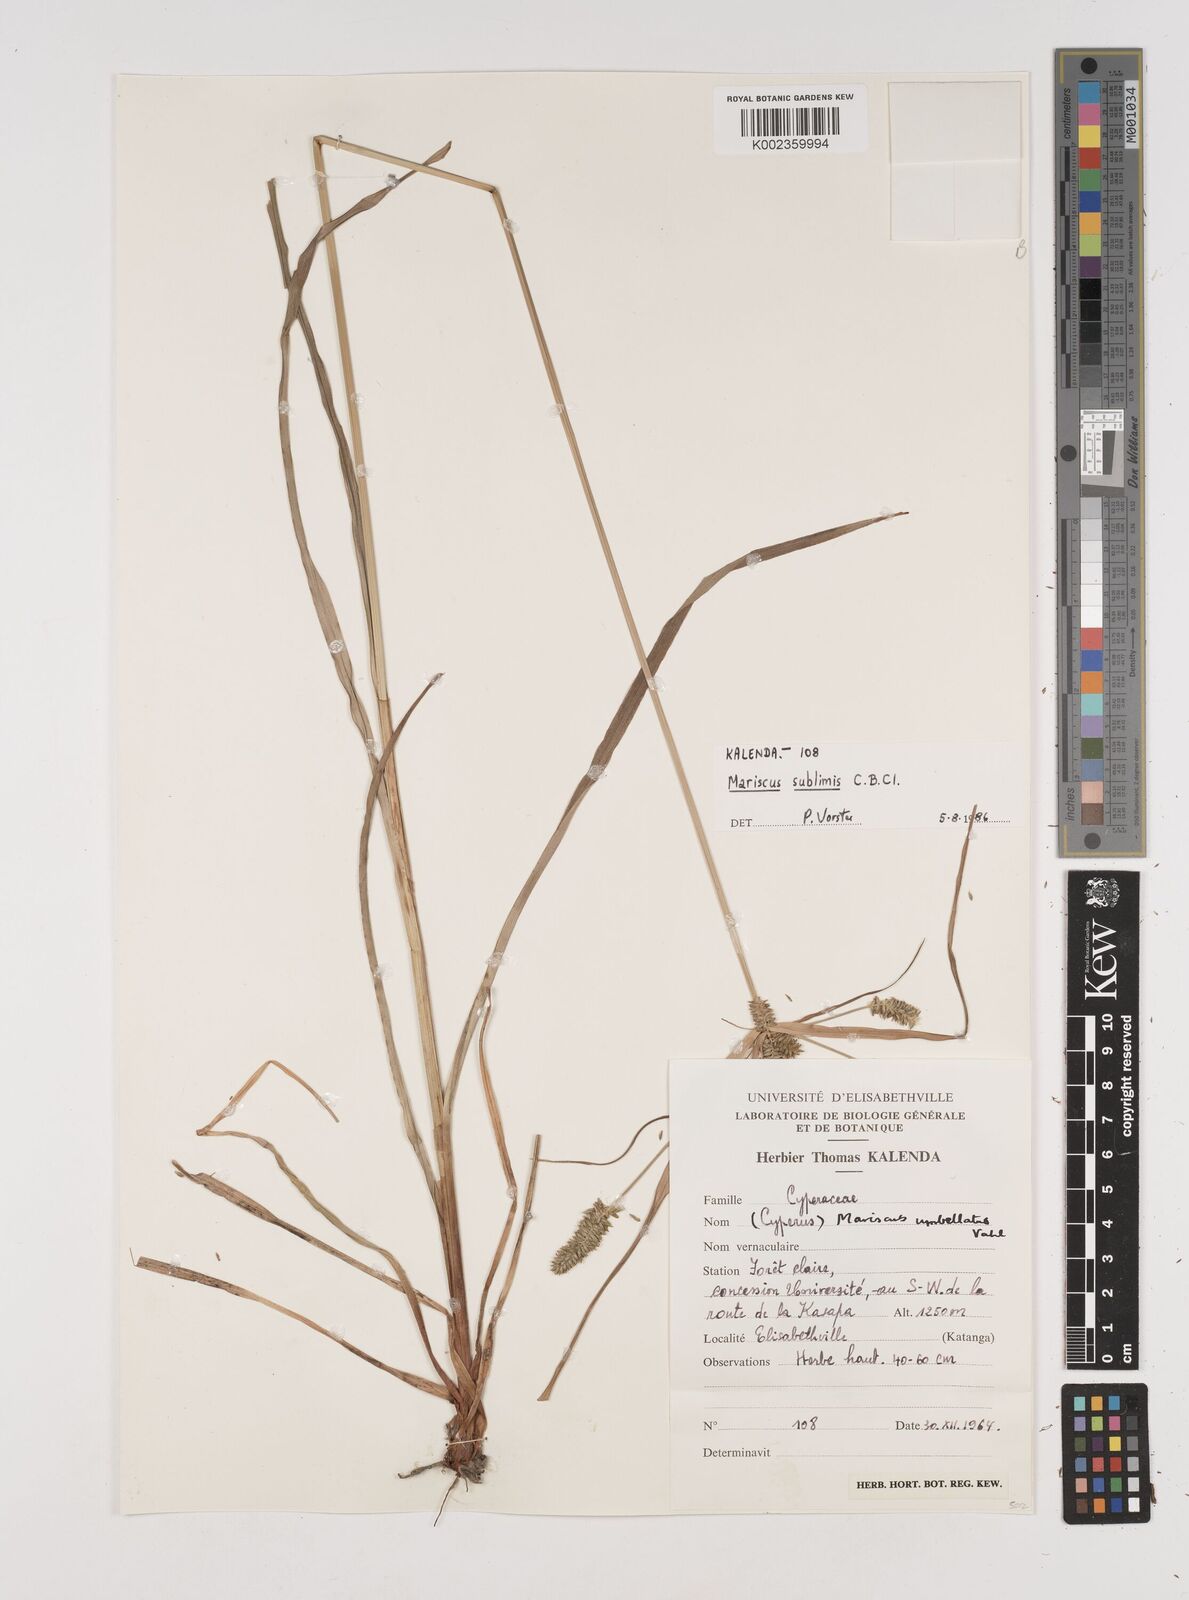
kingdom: Plantae
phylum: Tracheophyta
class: Liliopsida
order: Poales
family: Cyperaceae
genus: Cyperus
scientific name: Cyperus cyperoides
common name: Pacific island flat sedge
